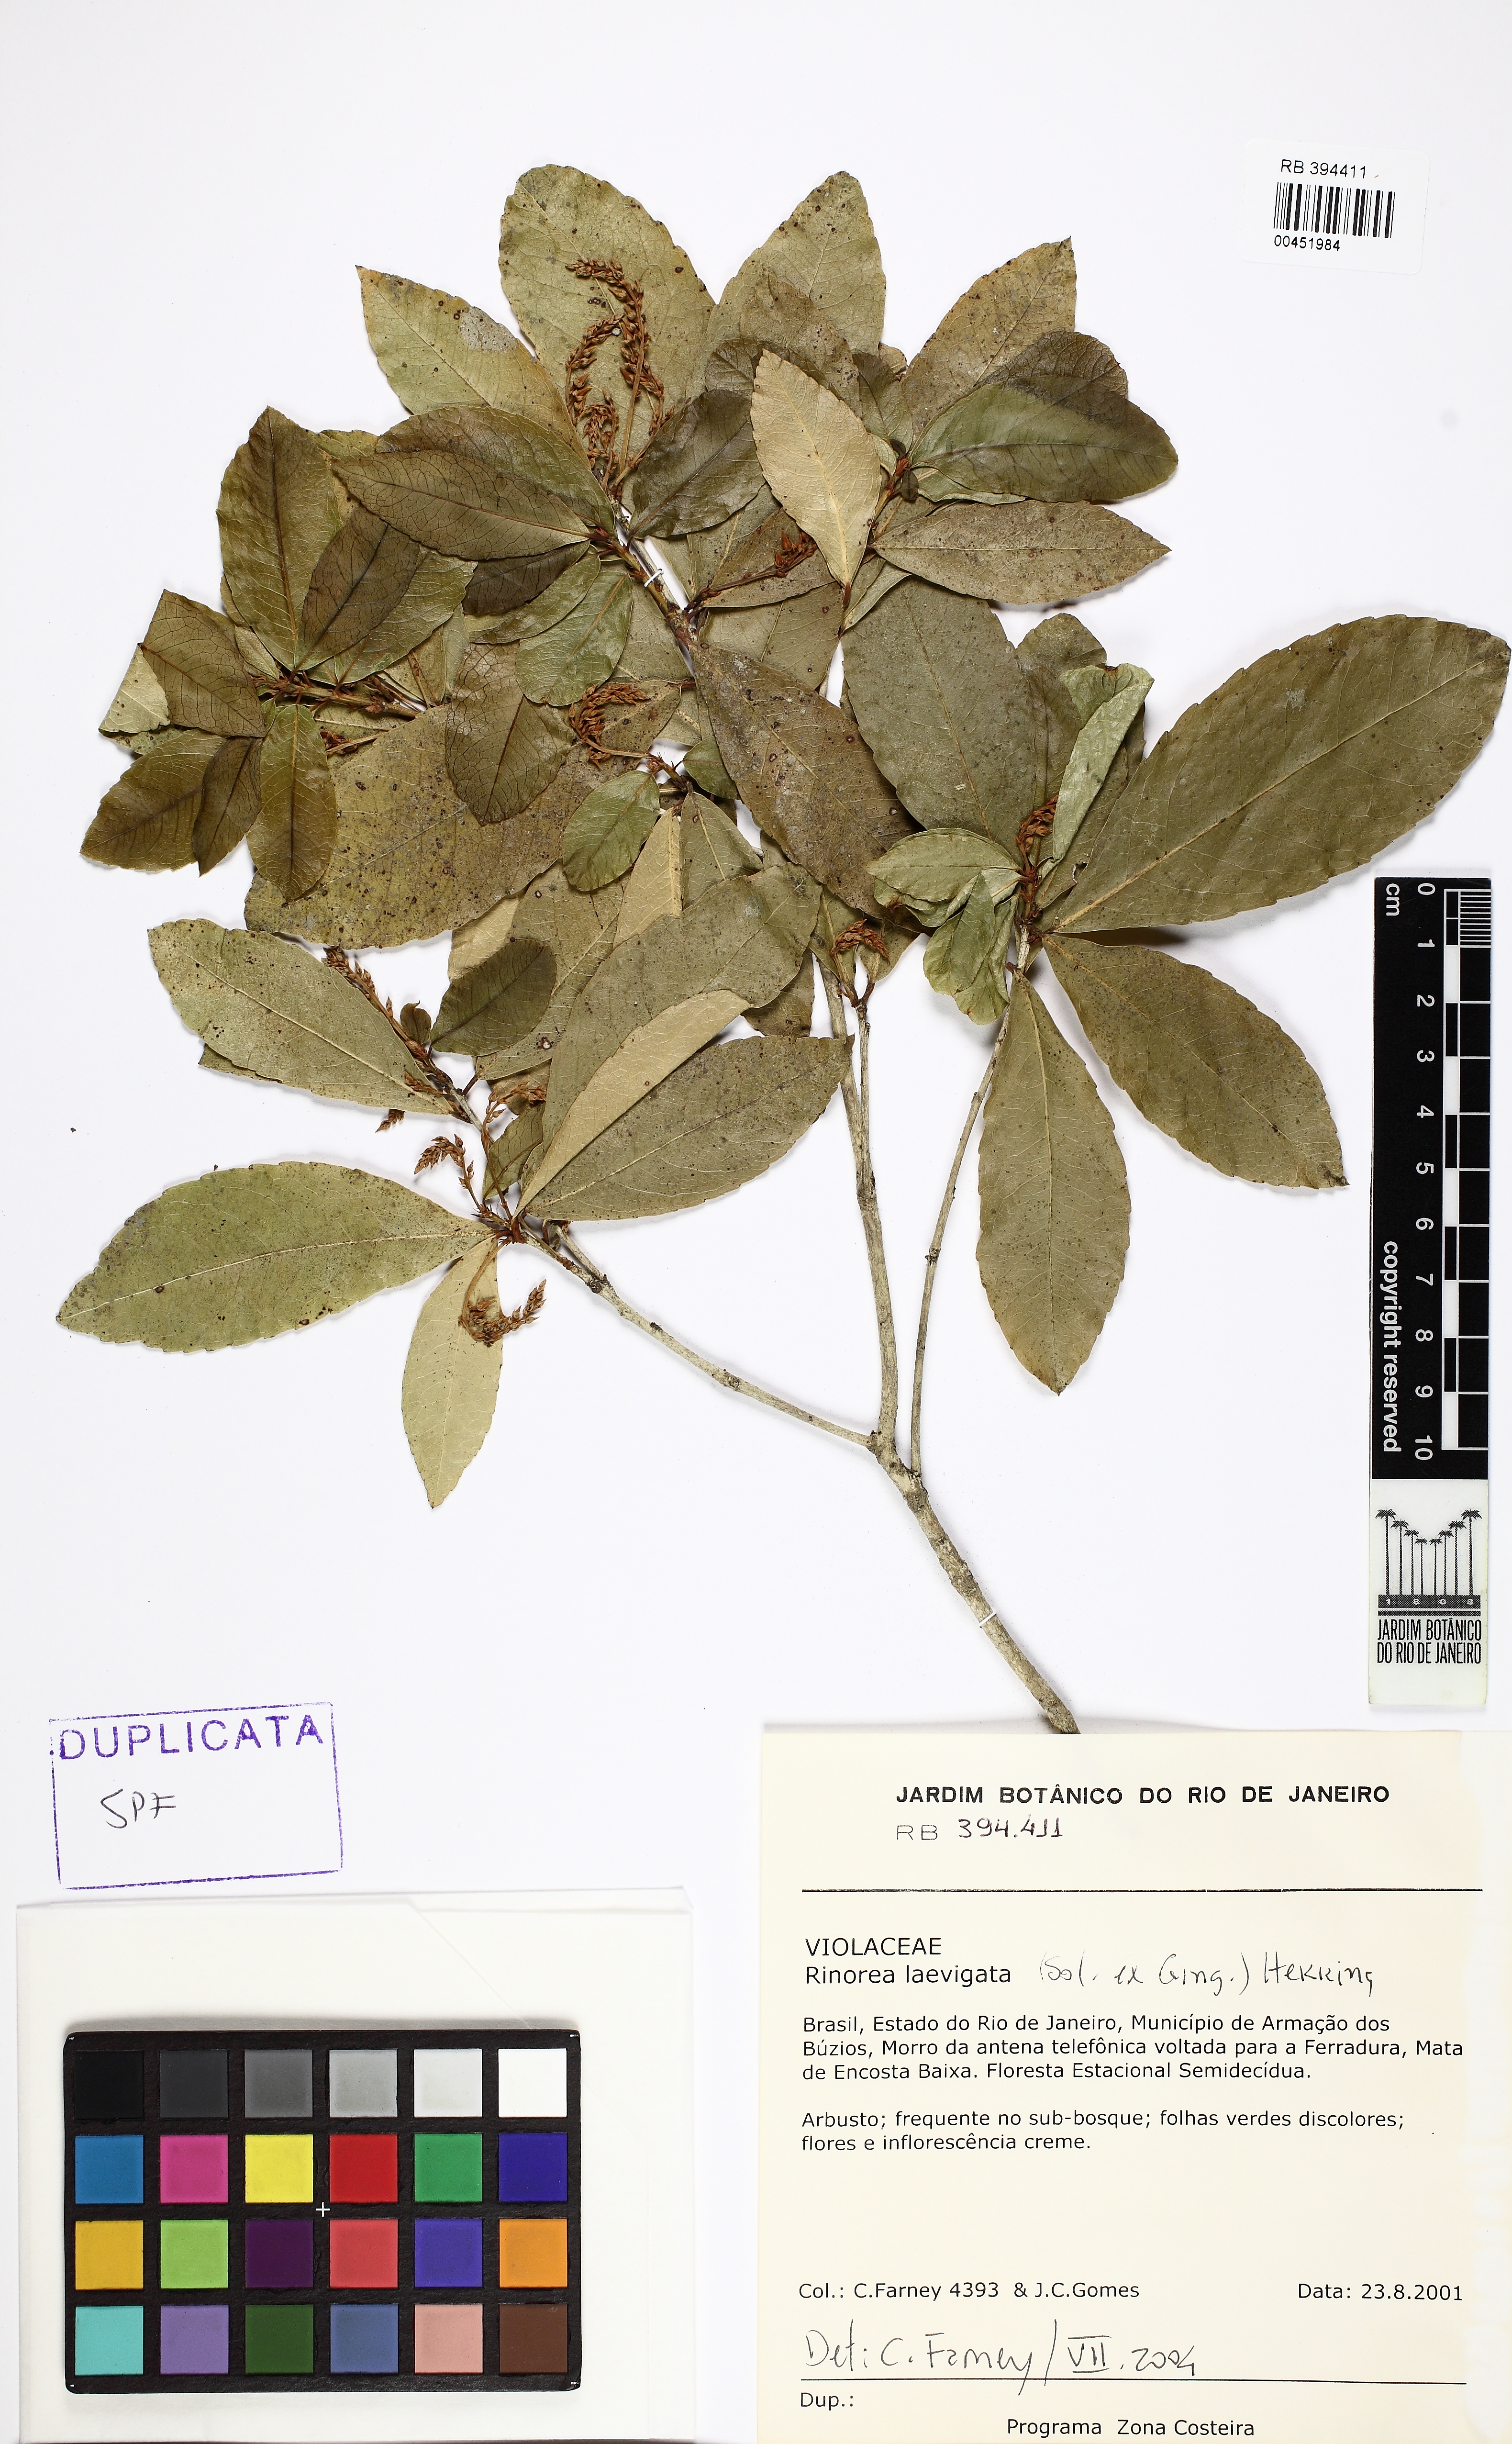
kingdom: Plantae
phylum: Tracheophyta
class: Magnoliopsida
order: Malpighiales
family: Violaceae
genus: Rinorea
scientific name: Rinorea laevigata
